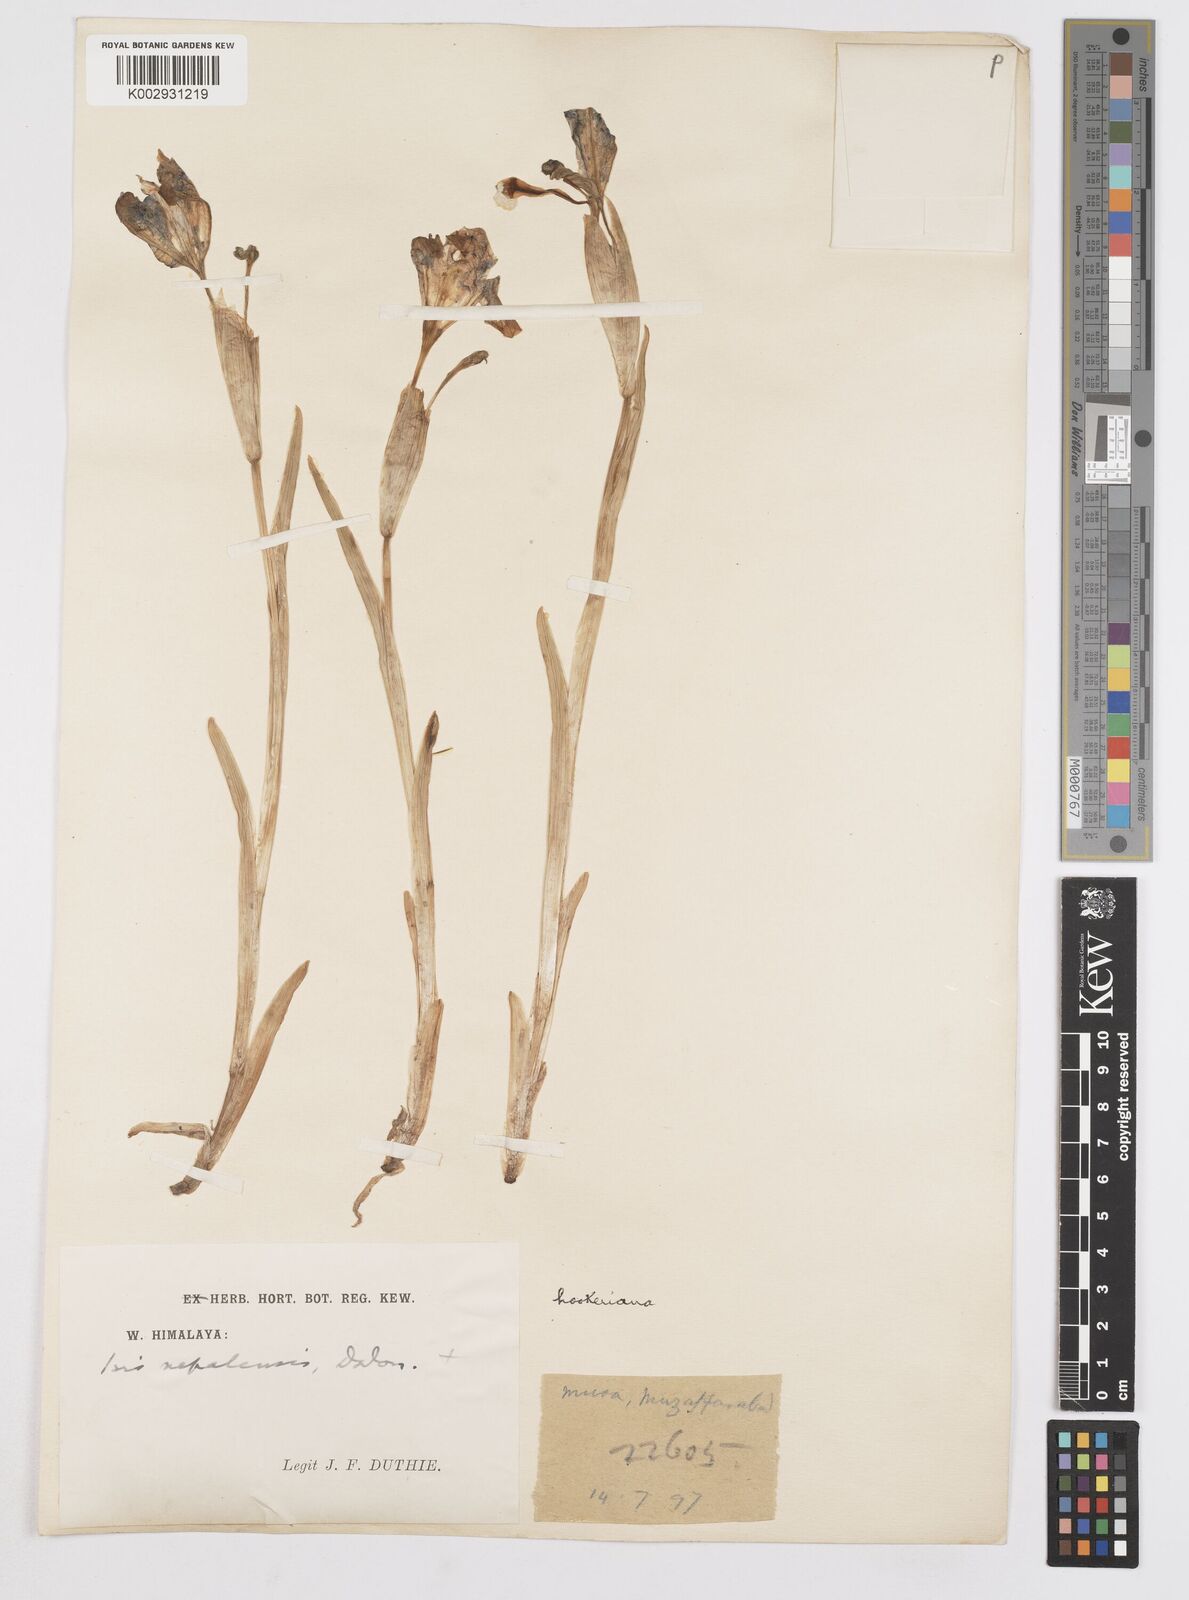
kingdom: Plantae
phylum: Tracheophyta
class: Liliopsida
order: Asparagales
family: Iridaceae
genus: Iris
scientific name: Iris hookeriana
